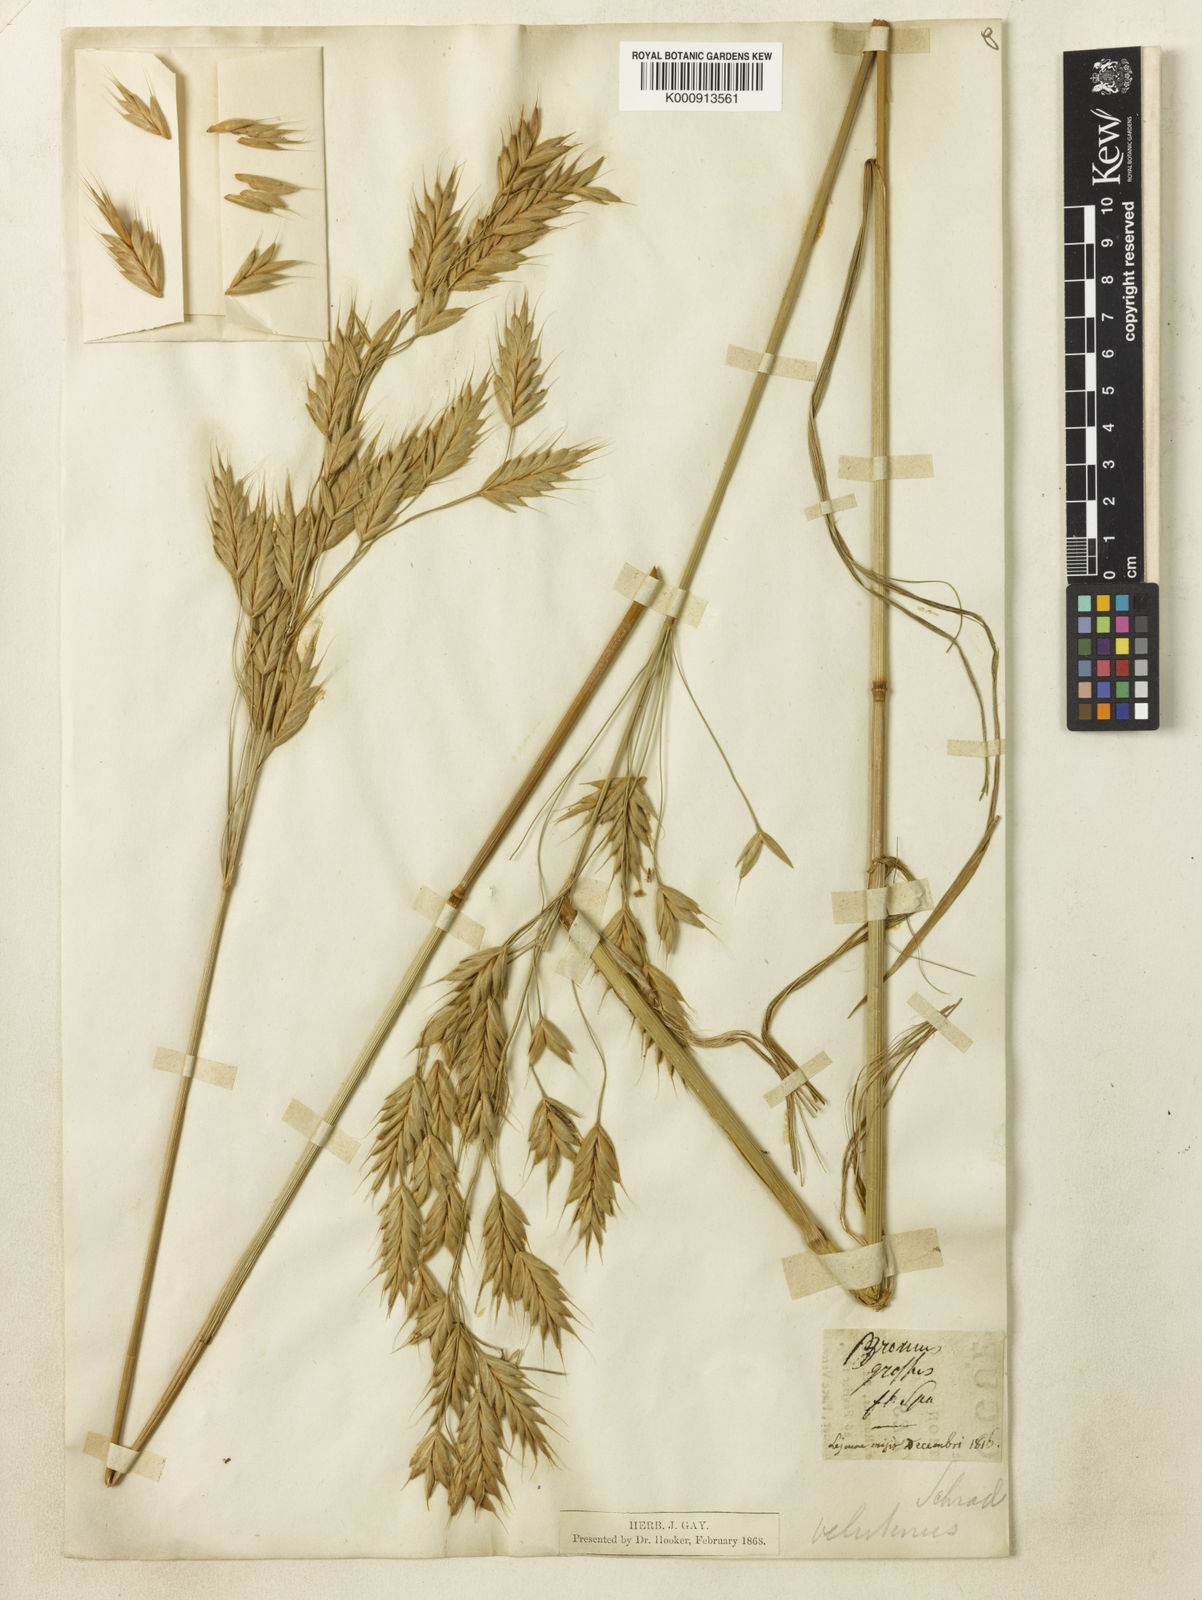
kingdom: Plantae
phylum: Tracheophyta
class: Liliopsida
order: Poales
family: Poaceae
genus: Bromus
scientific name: Bromus grossus
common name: Whiskered brome
